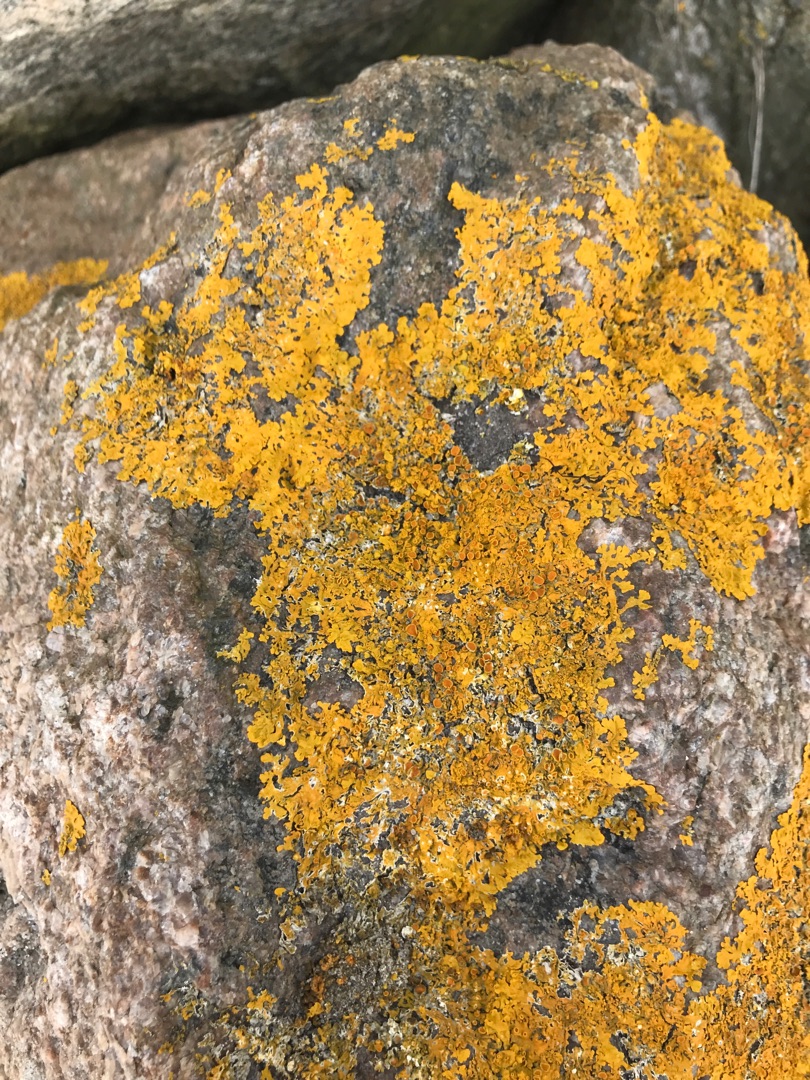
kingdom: Fungi
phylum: Ascomycota
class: Lecanoromycetes
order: Teloschistales
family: Teloschistaceae
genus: Xanthoria
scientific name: Xanthoria parietina
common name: Almindelig væggelav
